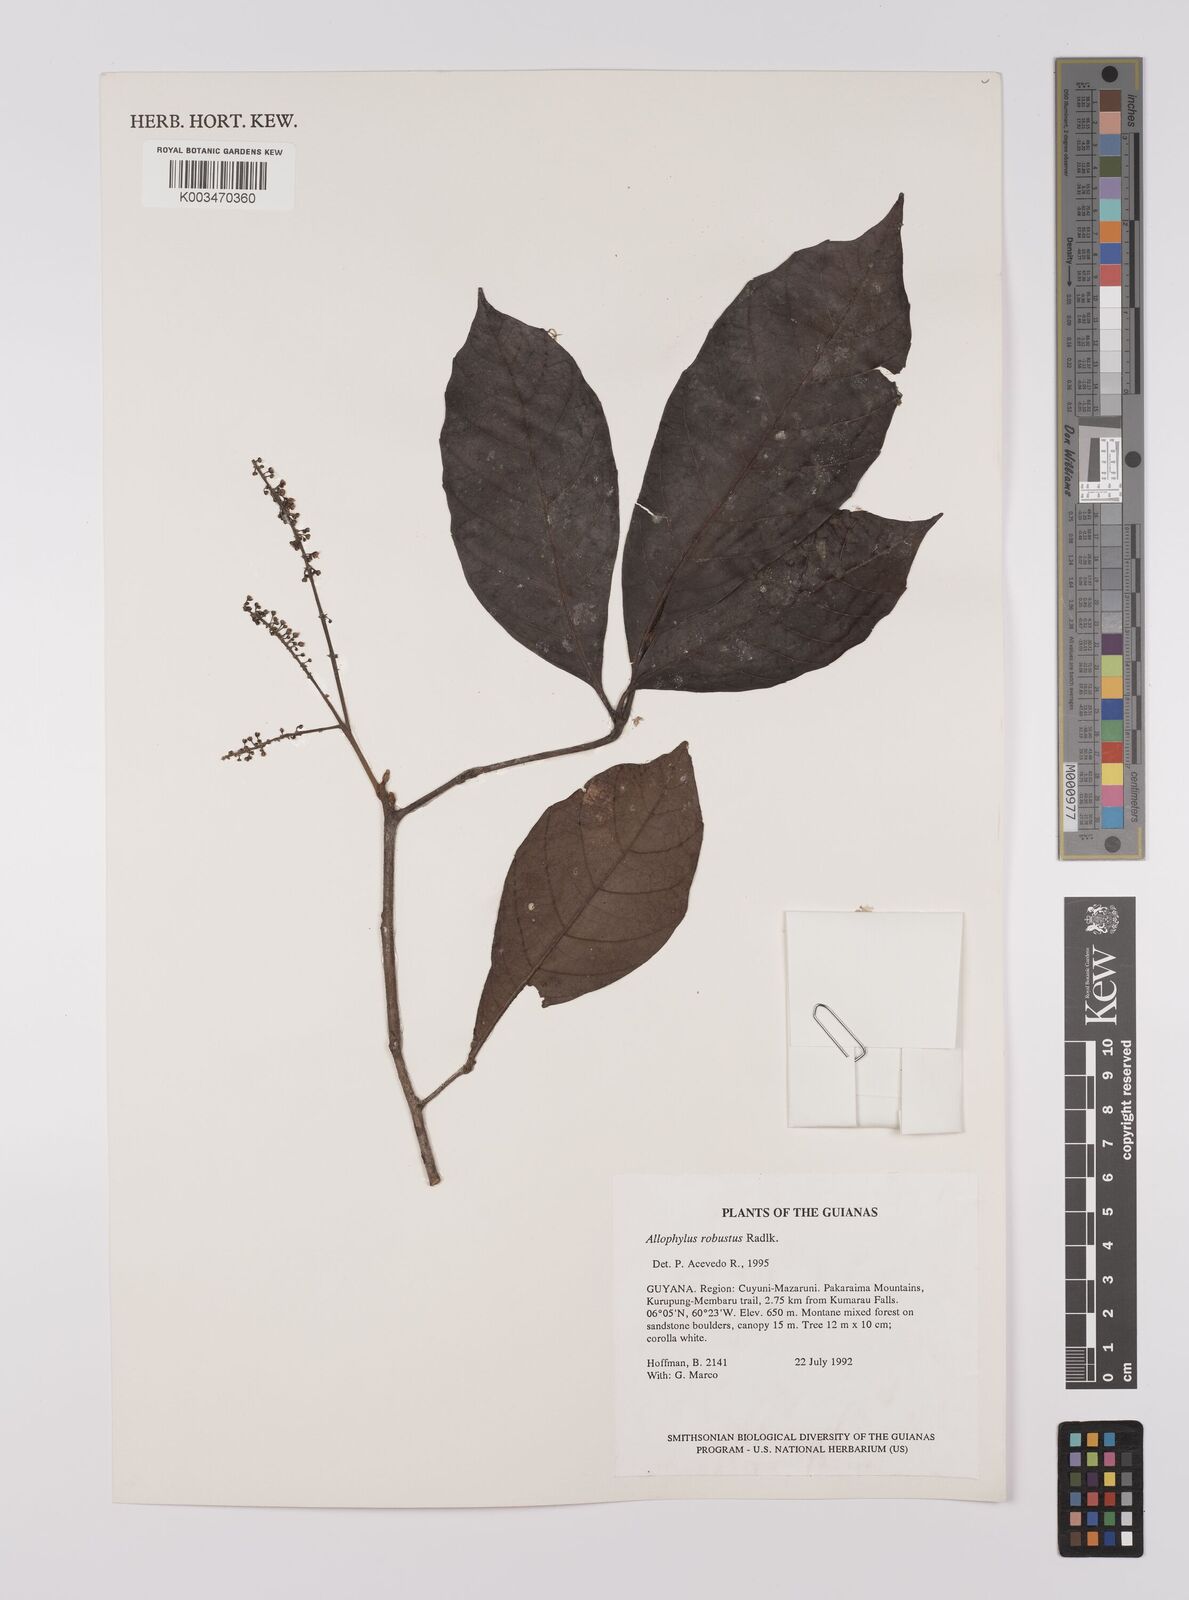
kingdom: Plantae
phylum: Tracheophyta
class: Magnoliopsida
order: Sapindales
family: Sapindaceae
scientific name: Sapindaceae
